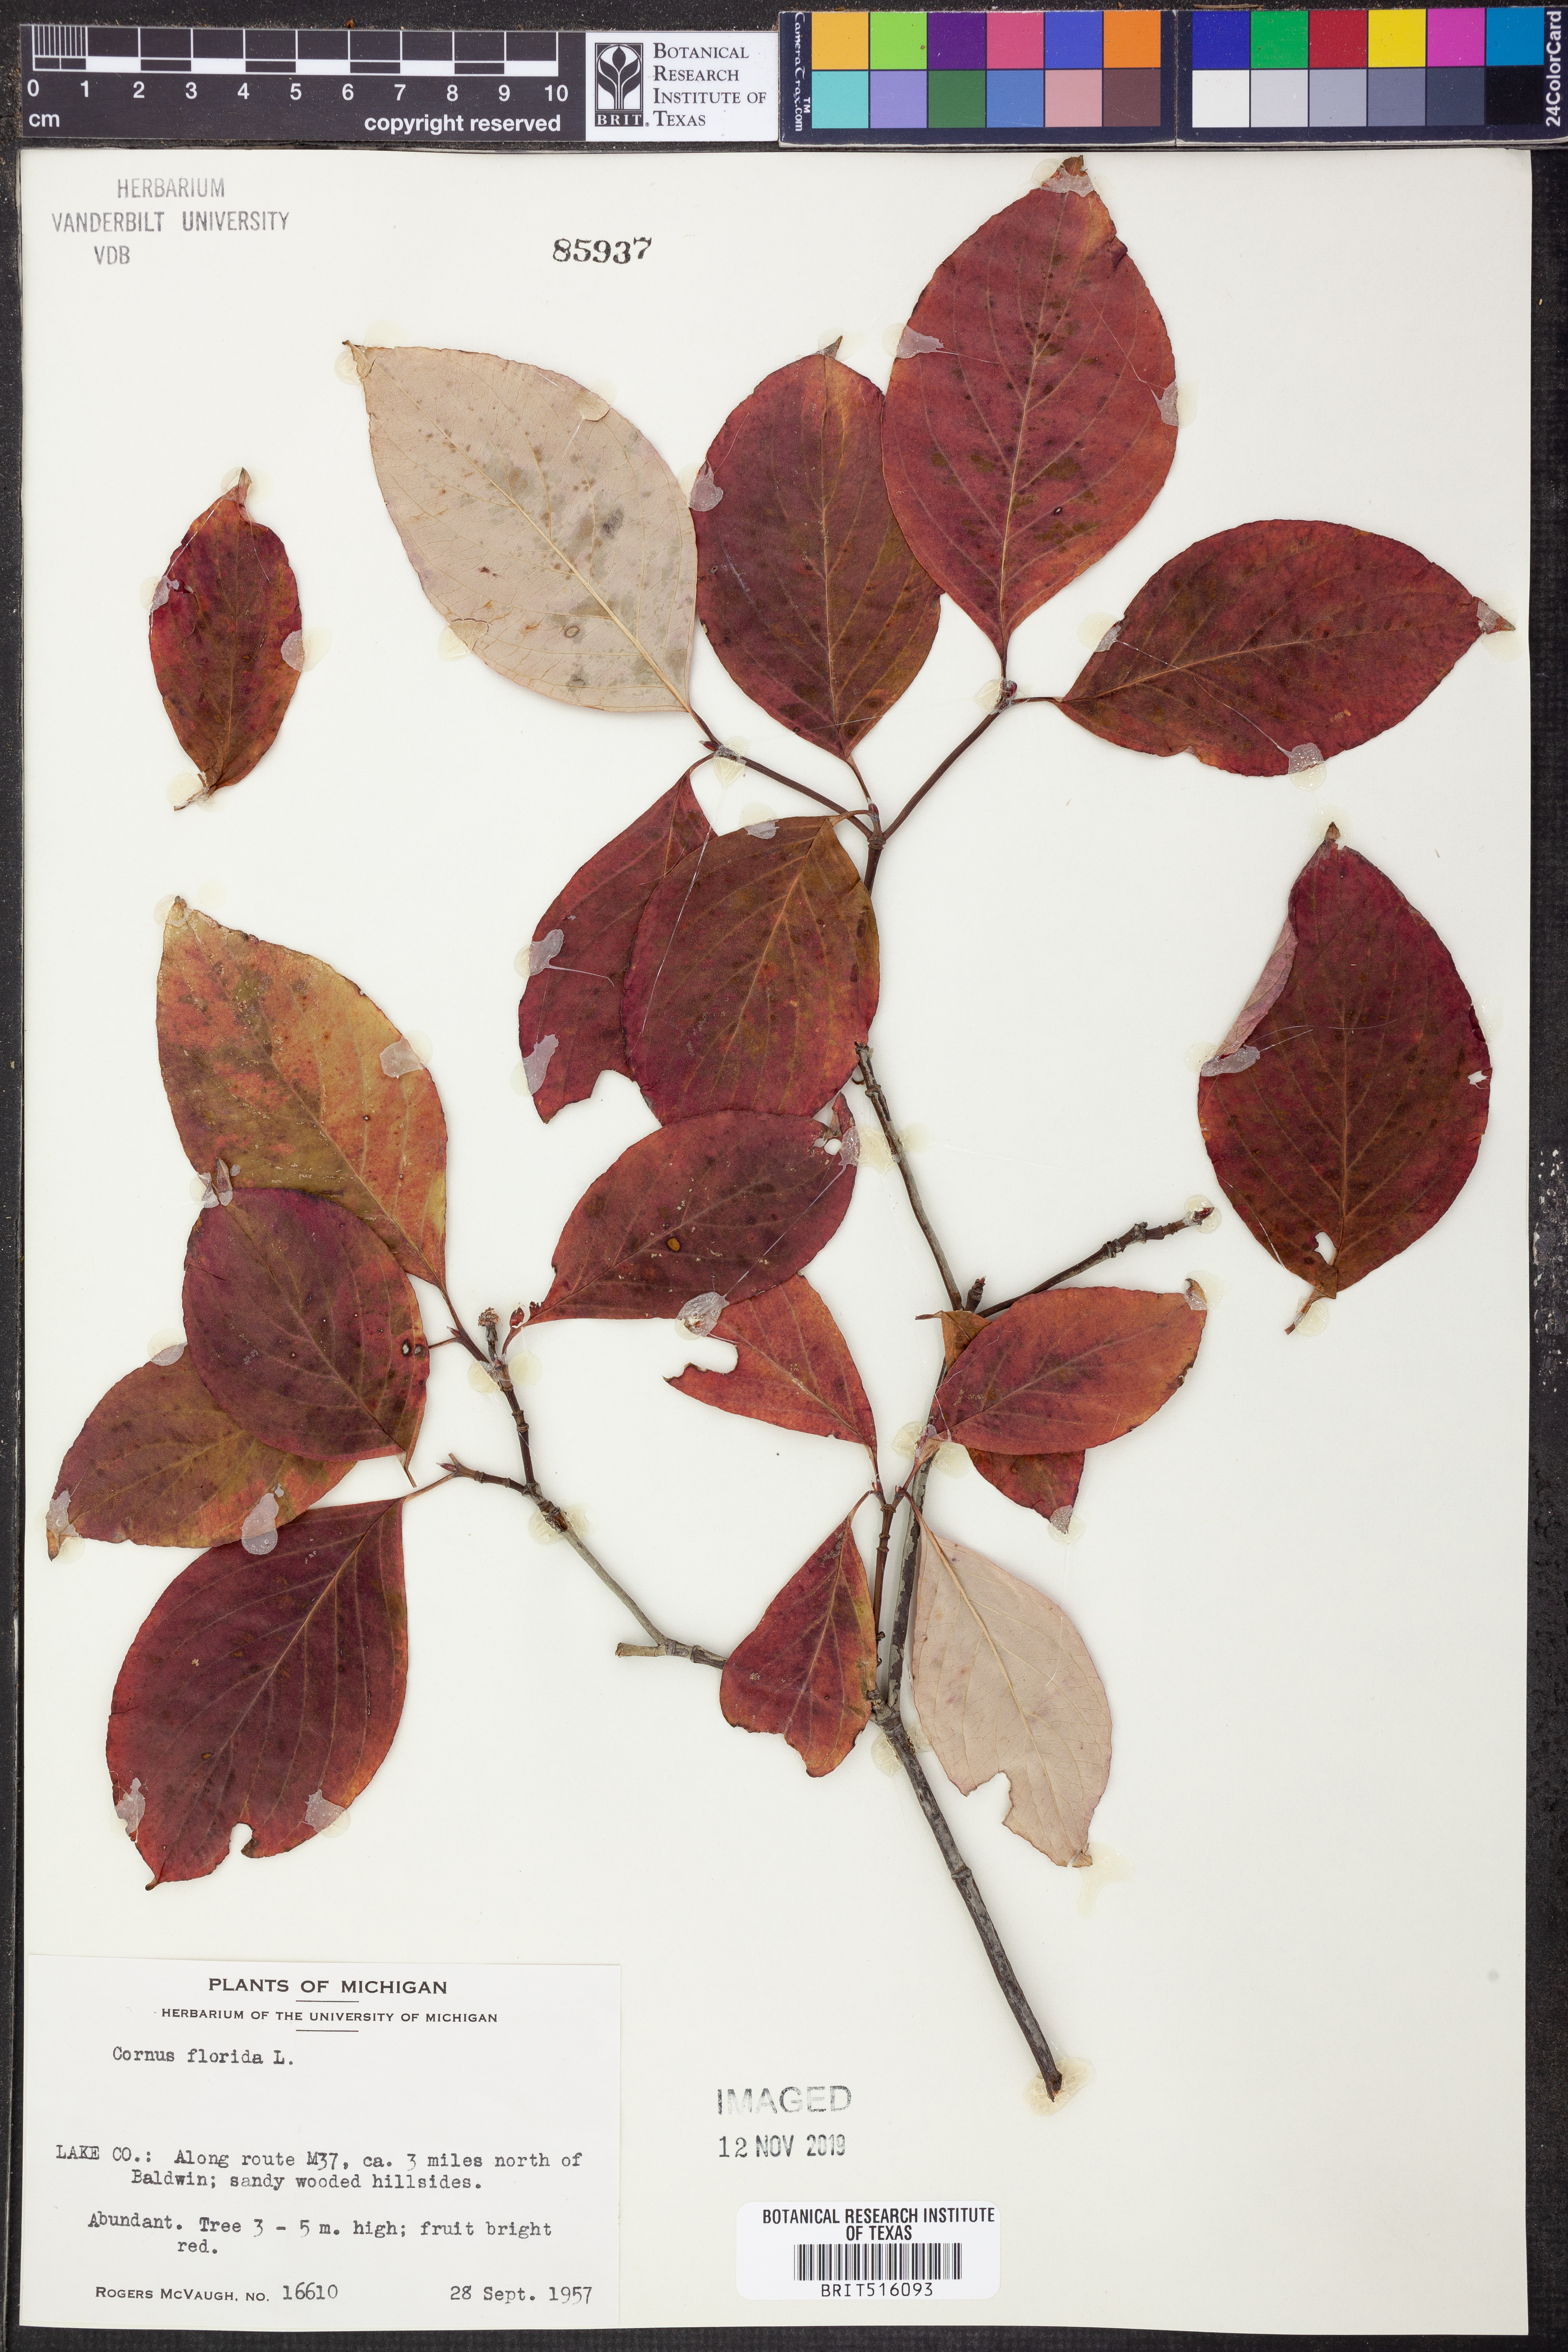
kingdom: Plantae
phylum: Tracheophyta
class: Magnoliopsida
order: Cornales
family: Cornaceae
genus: Cornus
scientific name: Cornus florida
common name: Flowering dogwood
